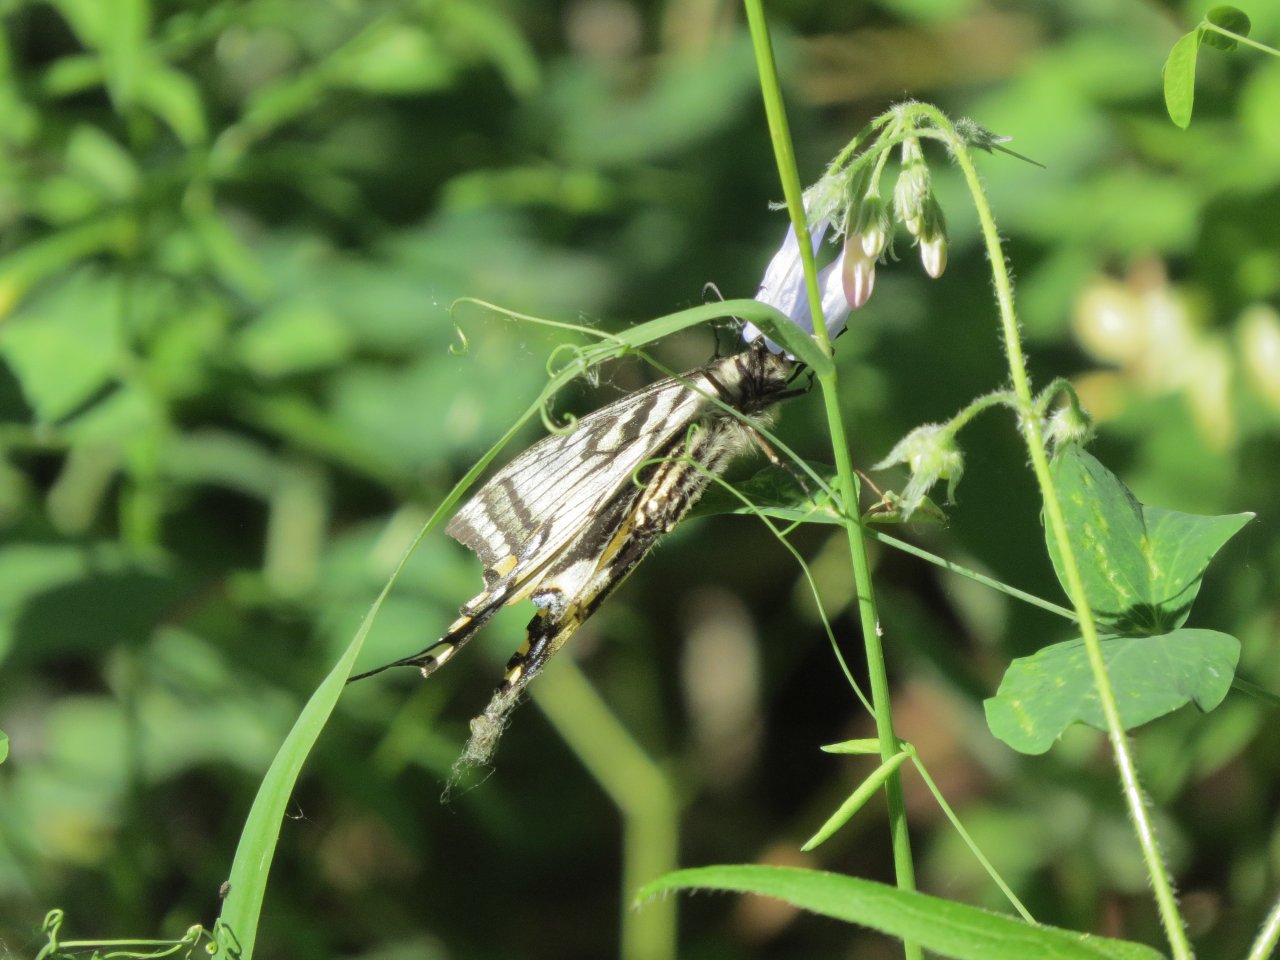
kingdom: Animalia
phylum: Arthropoda
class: Insecta
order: Lepidoptera
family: Papilionidae
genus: Pterourus
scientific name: Pterourus canadensis
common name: Canadian Tiger Swallowtail
